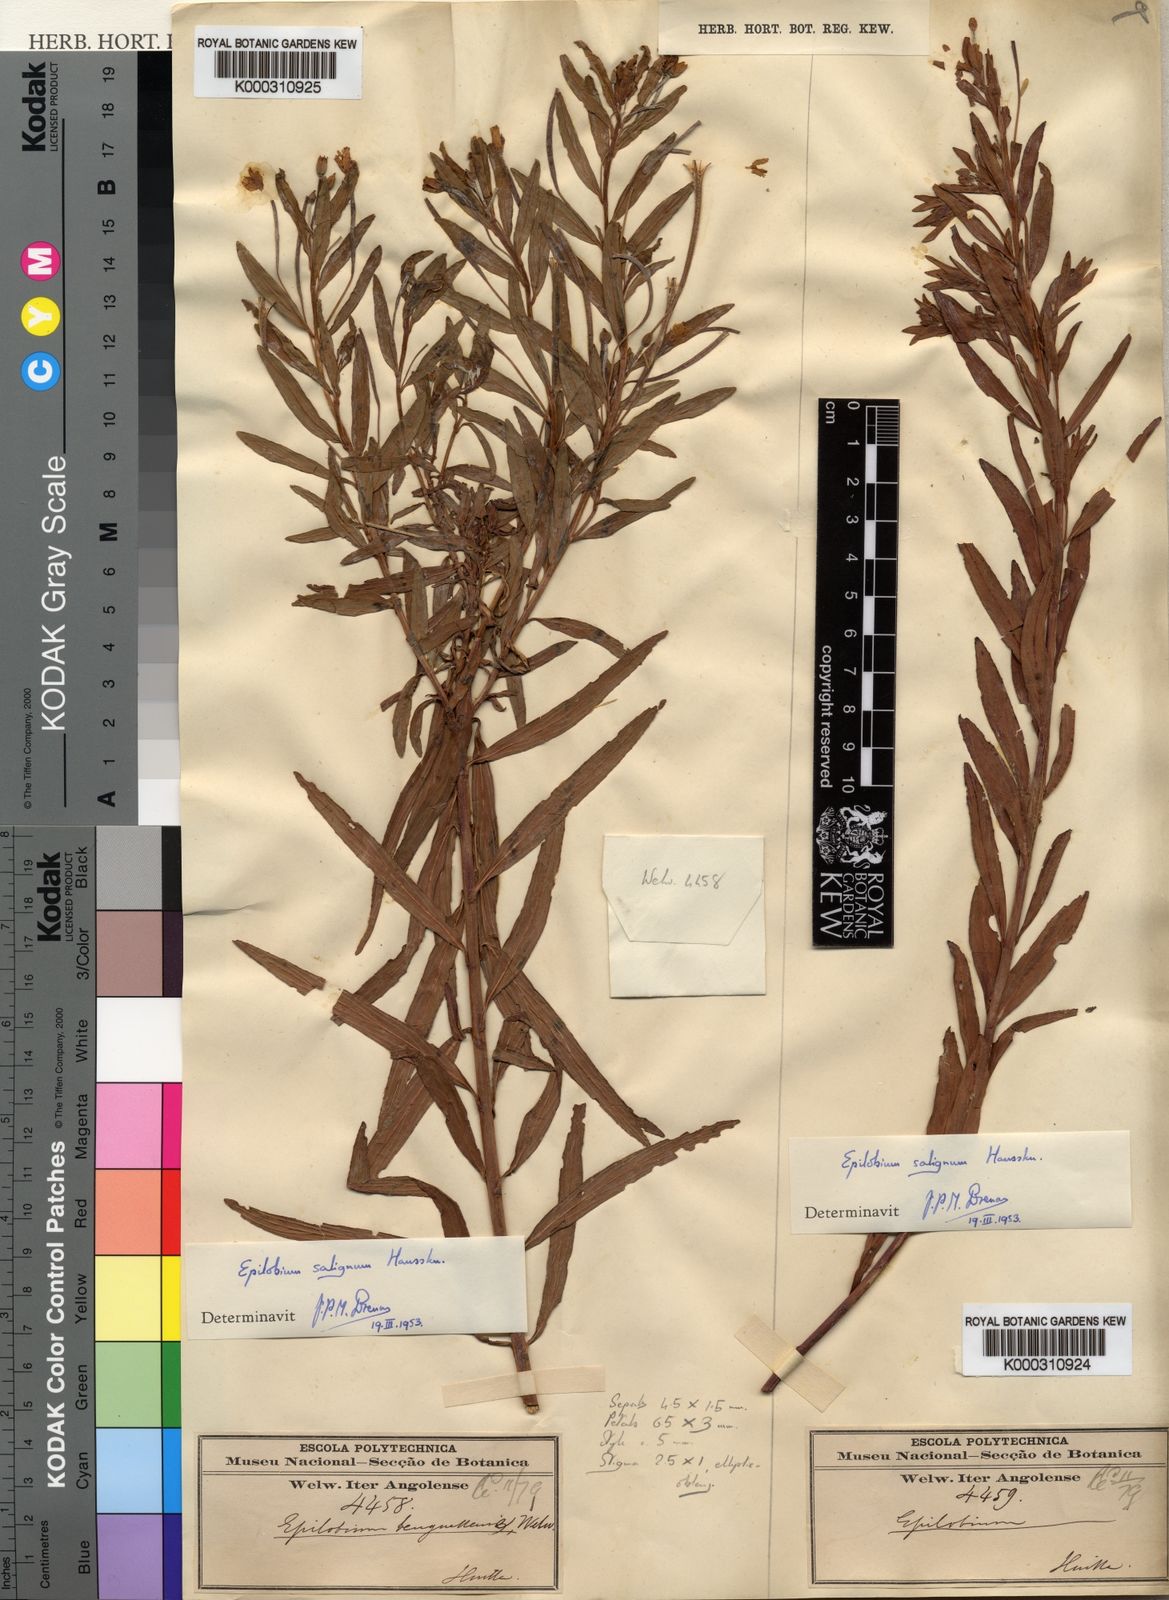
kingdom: Plantae
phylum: Tracheophyta
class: Magnoliopsida
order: Myrtales
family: Onagraceae
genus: Epilobium
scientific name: Epilobium salignum
